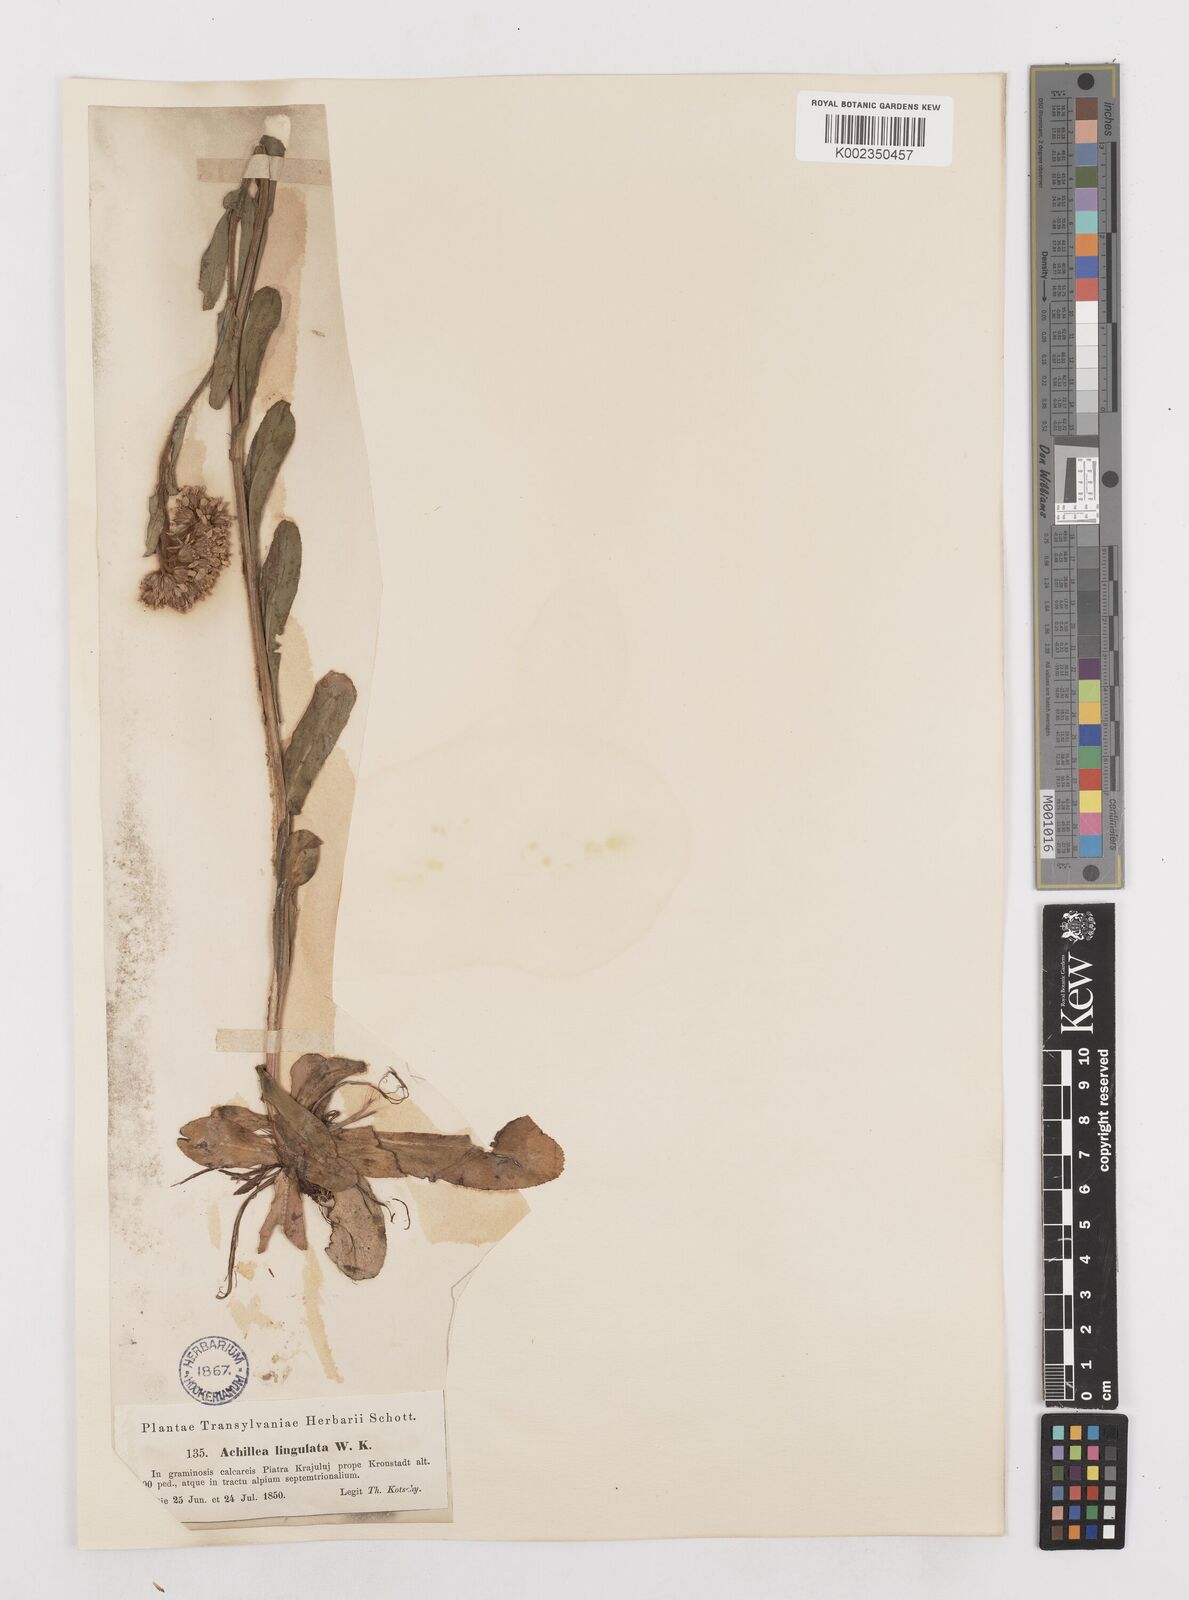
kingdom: Plantae
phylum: Tracheophyta
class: Magnoliopsida
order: Asterales
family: Asteraceae
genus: Achillea
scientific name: Achillea lingulata
